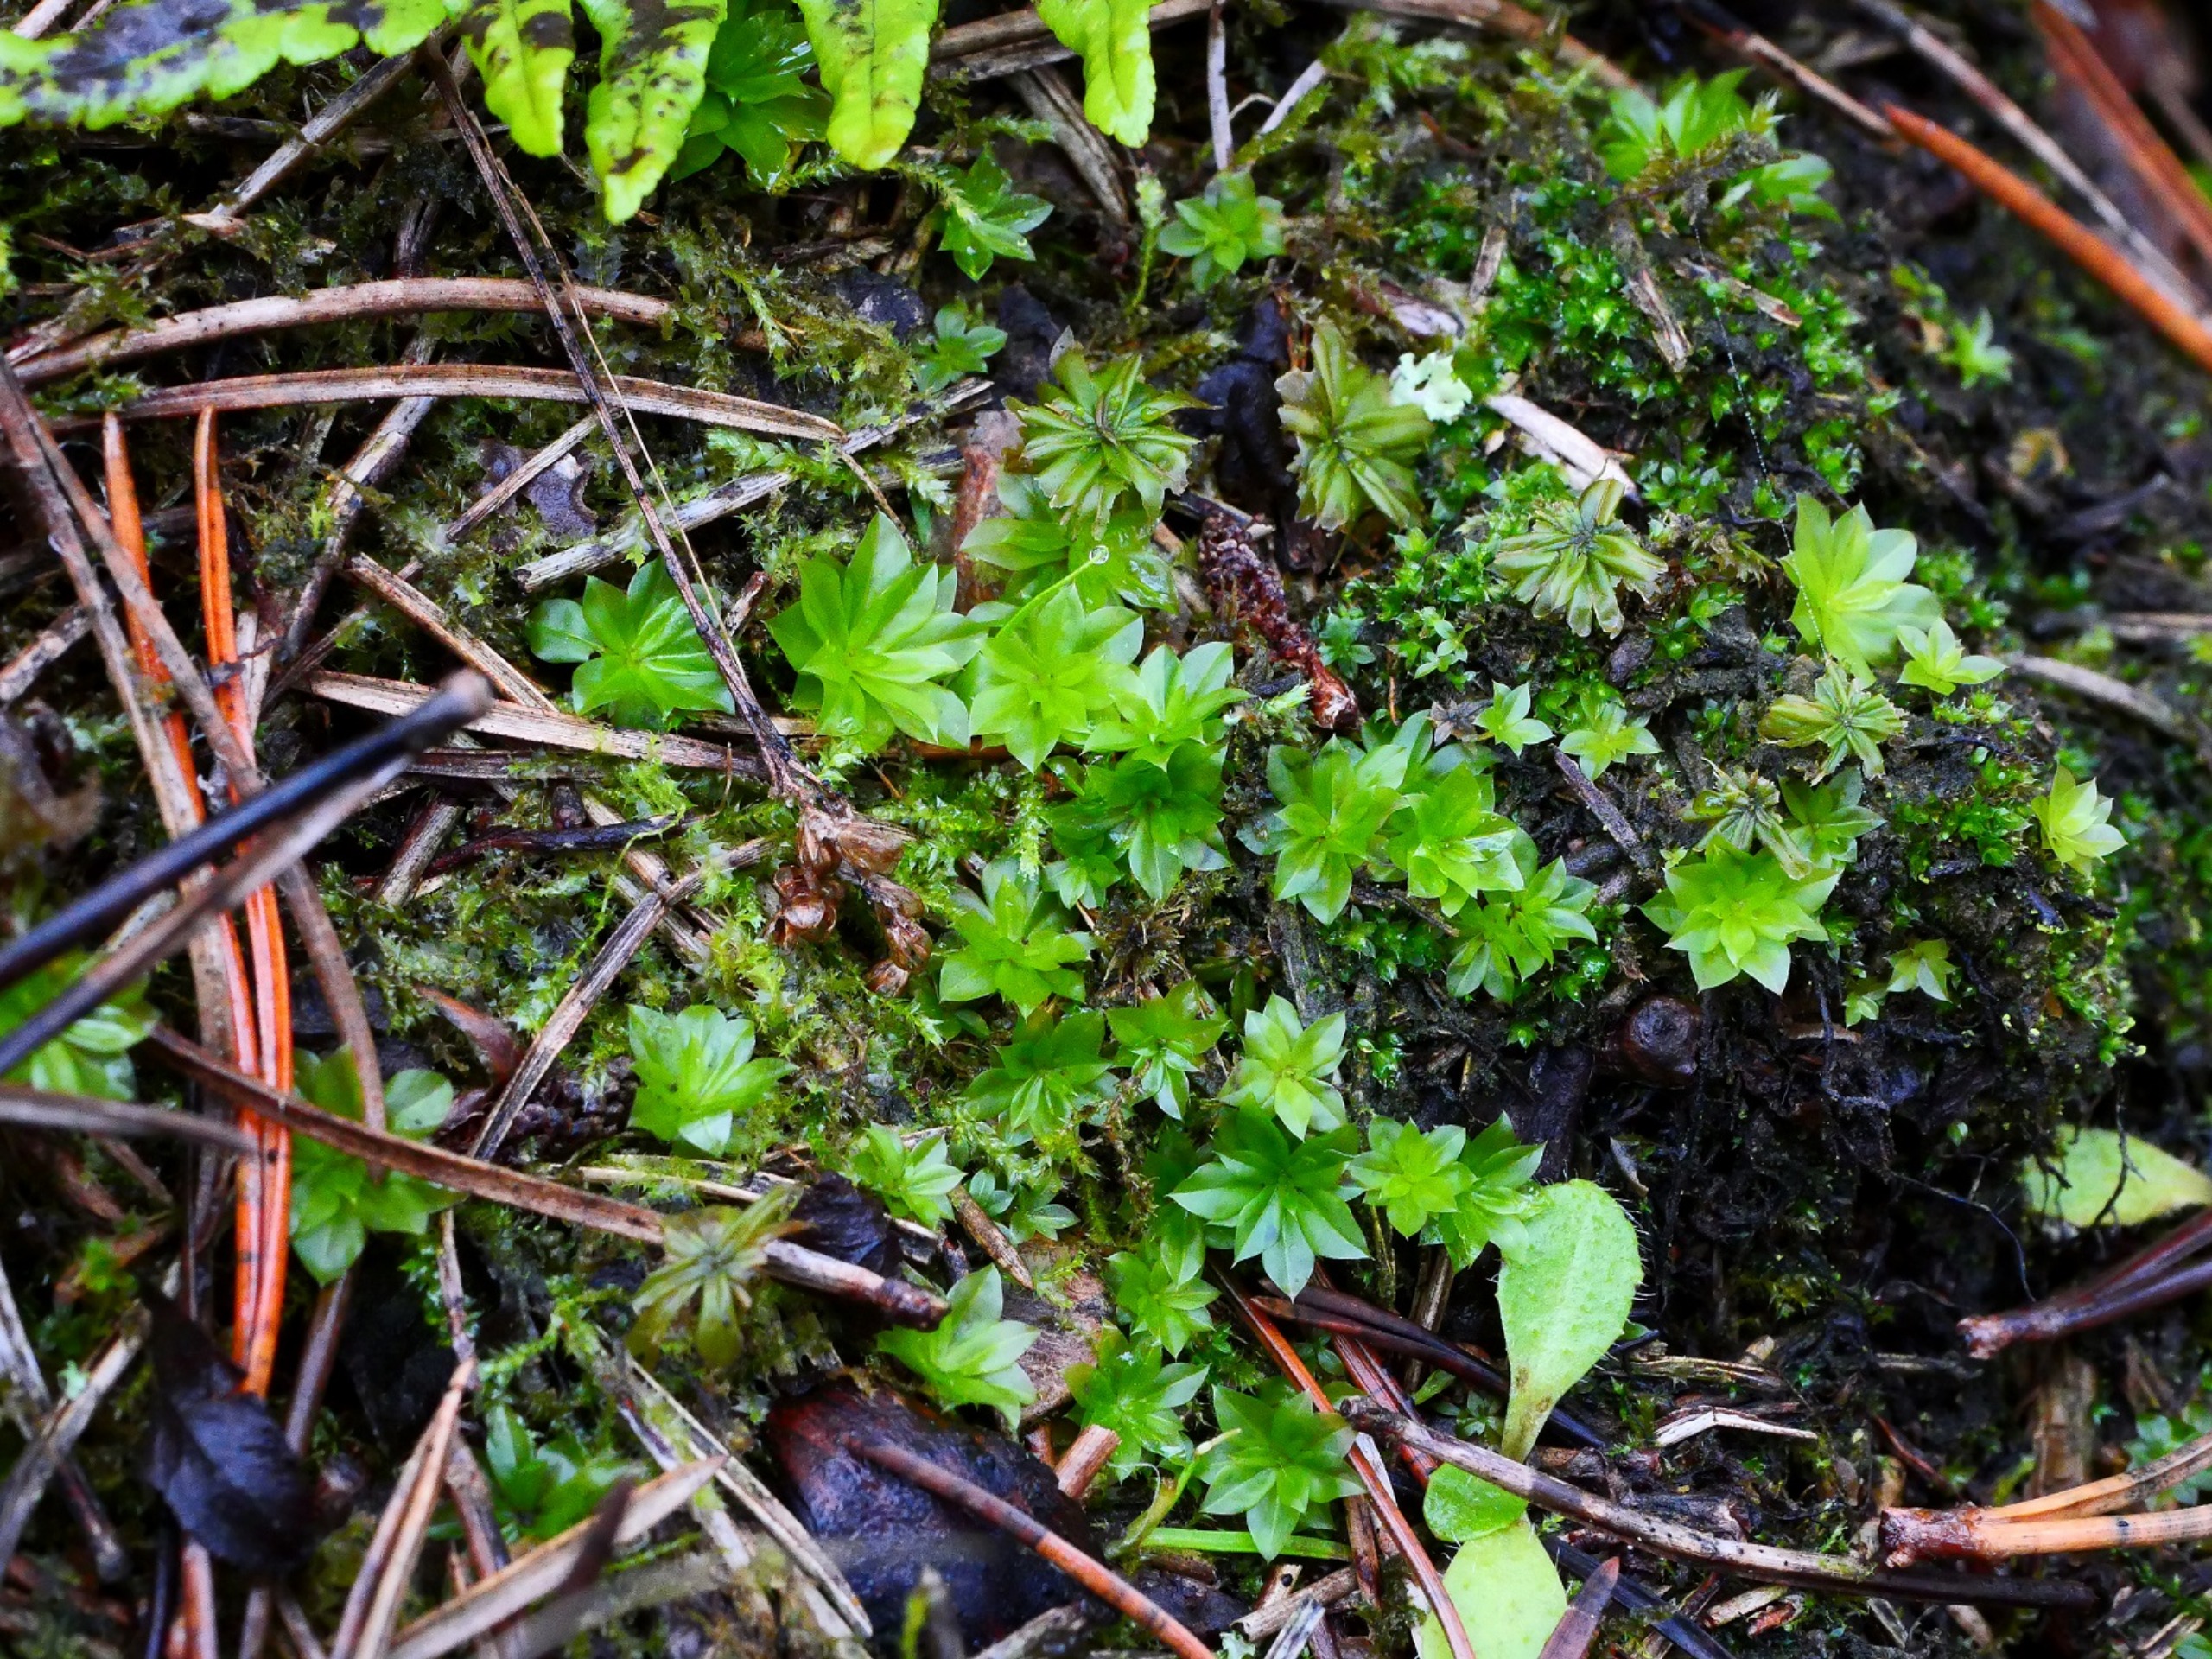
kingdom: Plantae
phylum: Bryophyta
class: Bryopsida
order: Bryales
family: Bryaceae
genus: Rhodobryum
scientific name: Rhodobryum roseum
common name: Stor rosetmos
